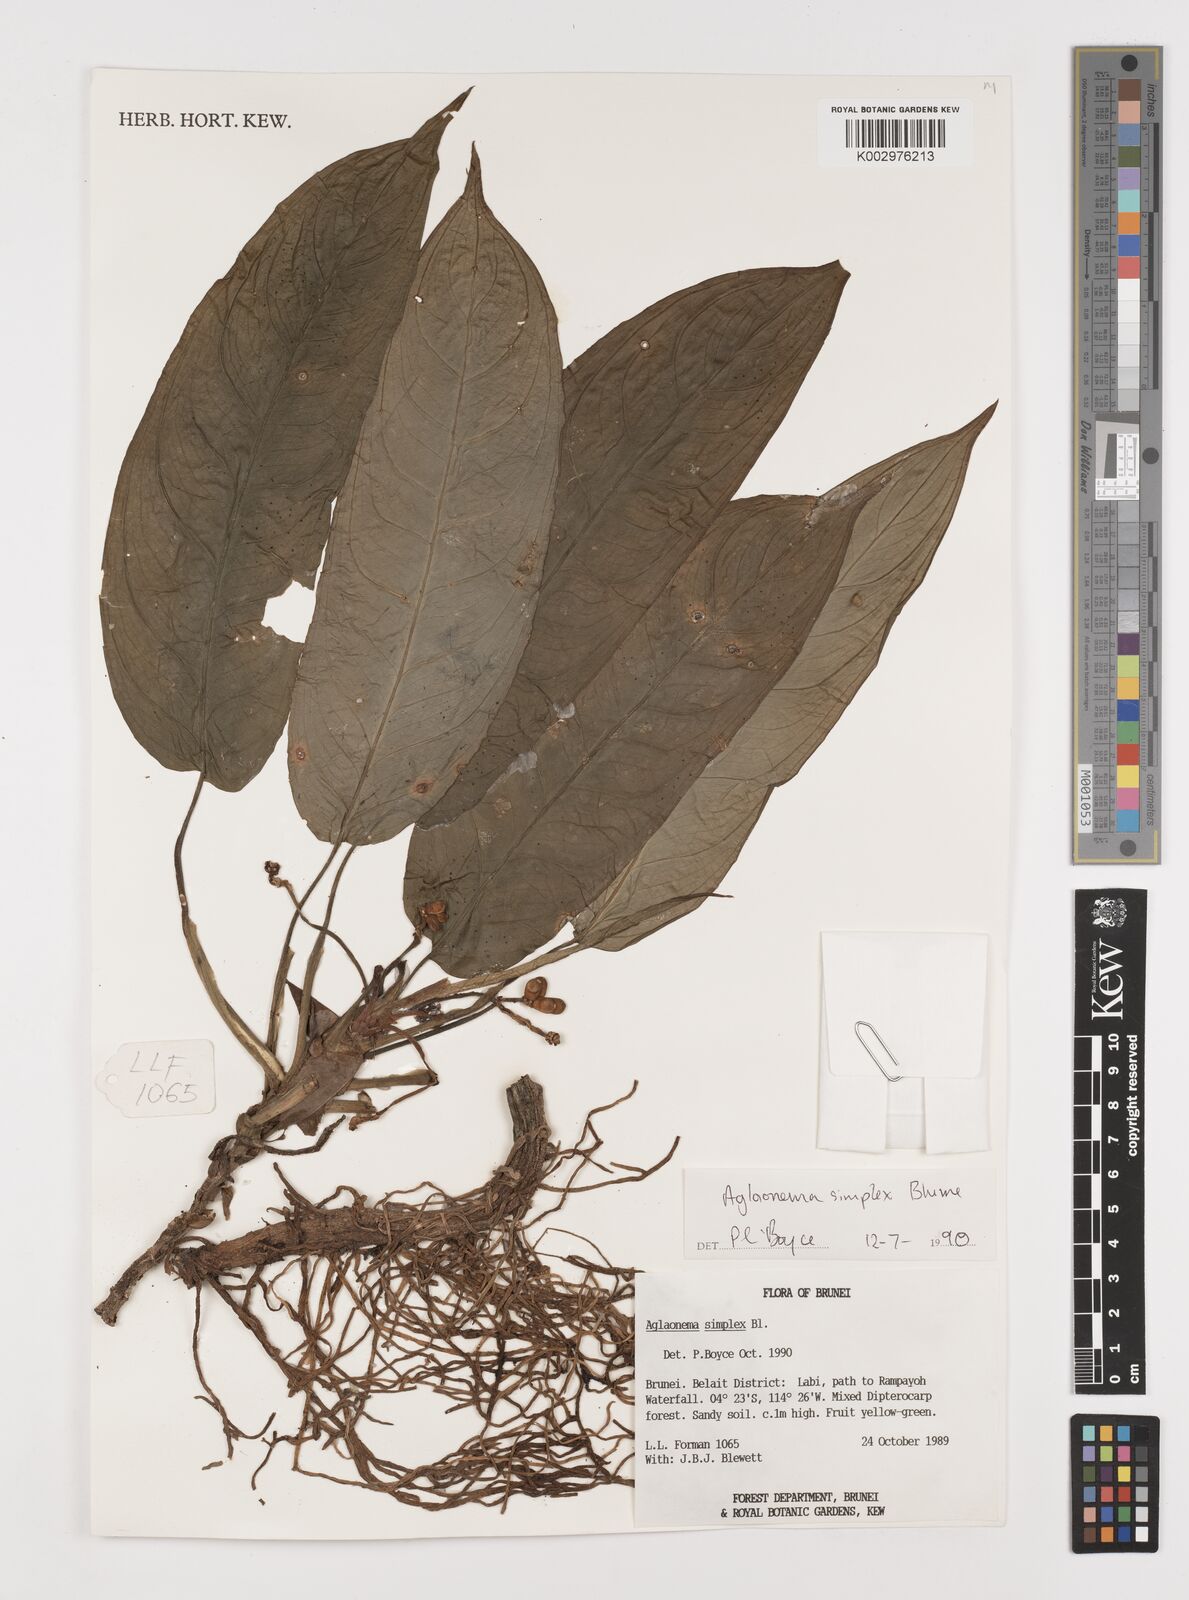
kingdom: Plantae
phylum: Tracheophyta
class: Liliopsida
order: Alismatales
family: Araceae
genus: Aglaonema
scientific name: Aglaonema simplex
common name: Malayan-sword
